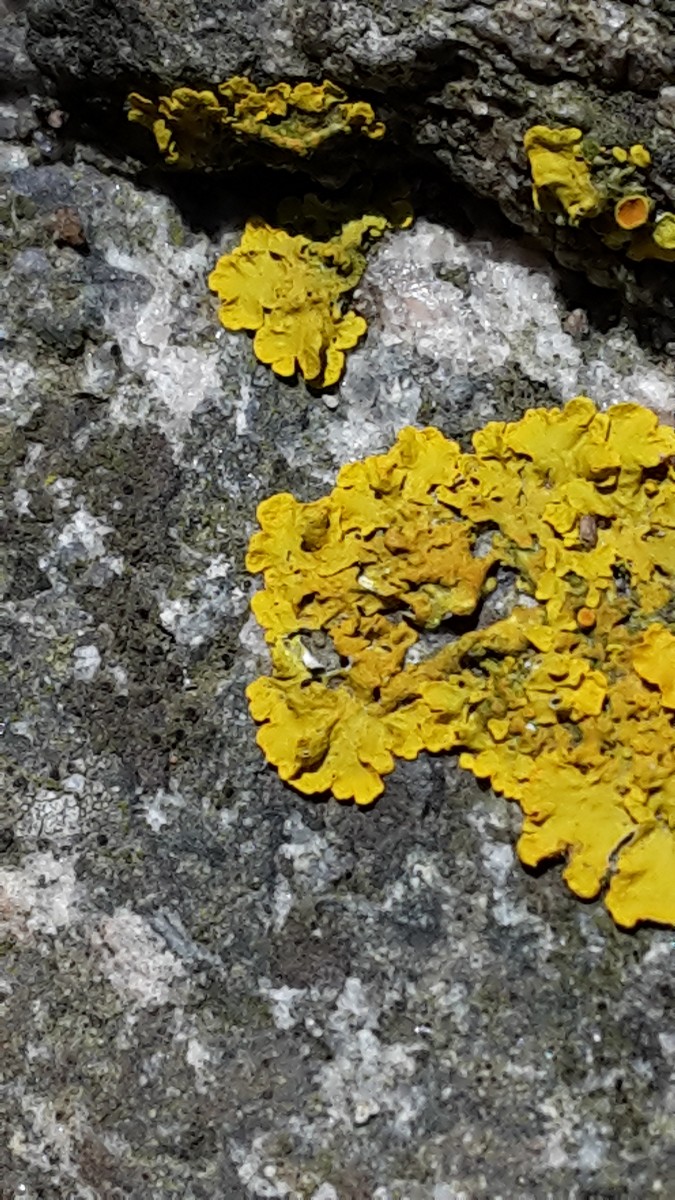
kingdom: Fungi
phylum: Ascomycota
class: Lecanoromycetes
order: Teloschistales
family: Teloschistaceae
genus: Xanthoria
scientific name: Xanthoria aureola
